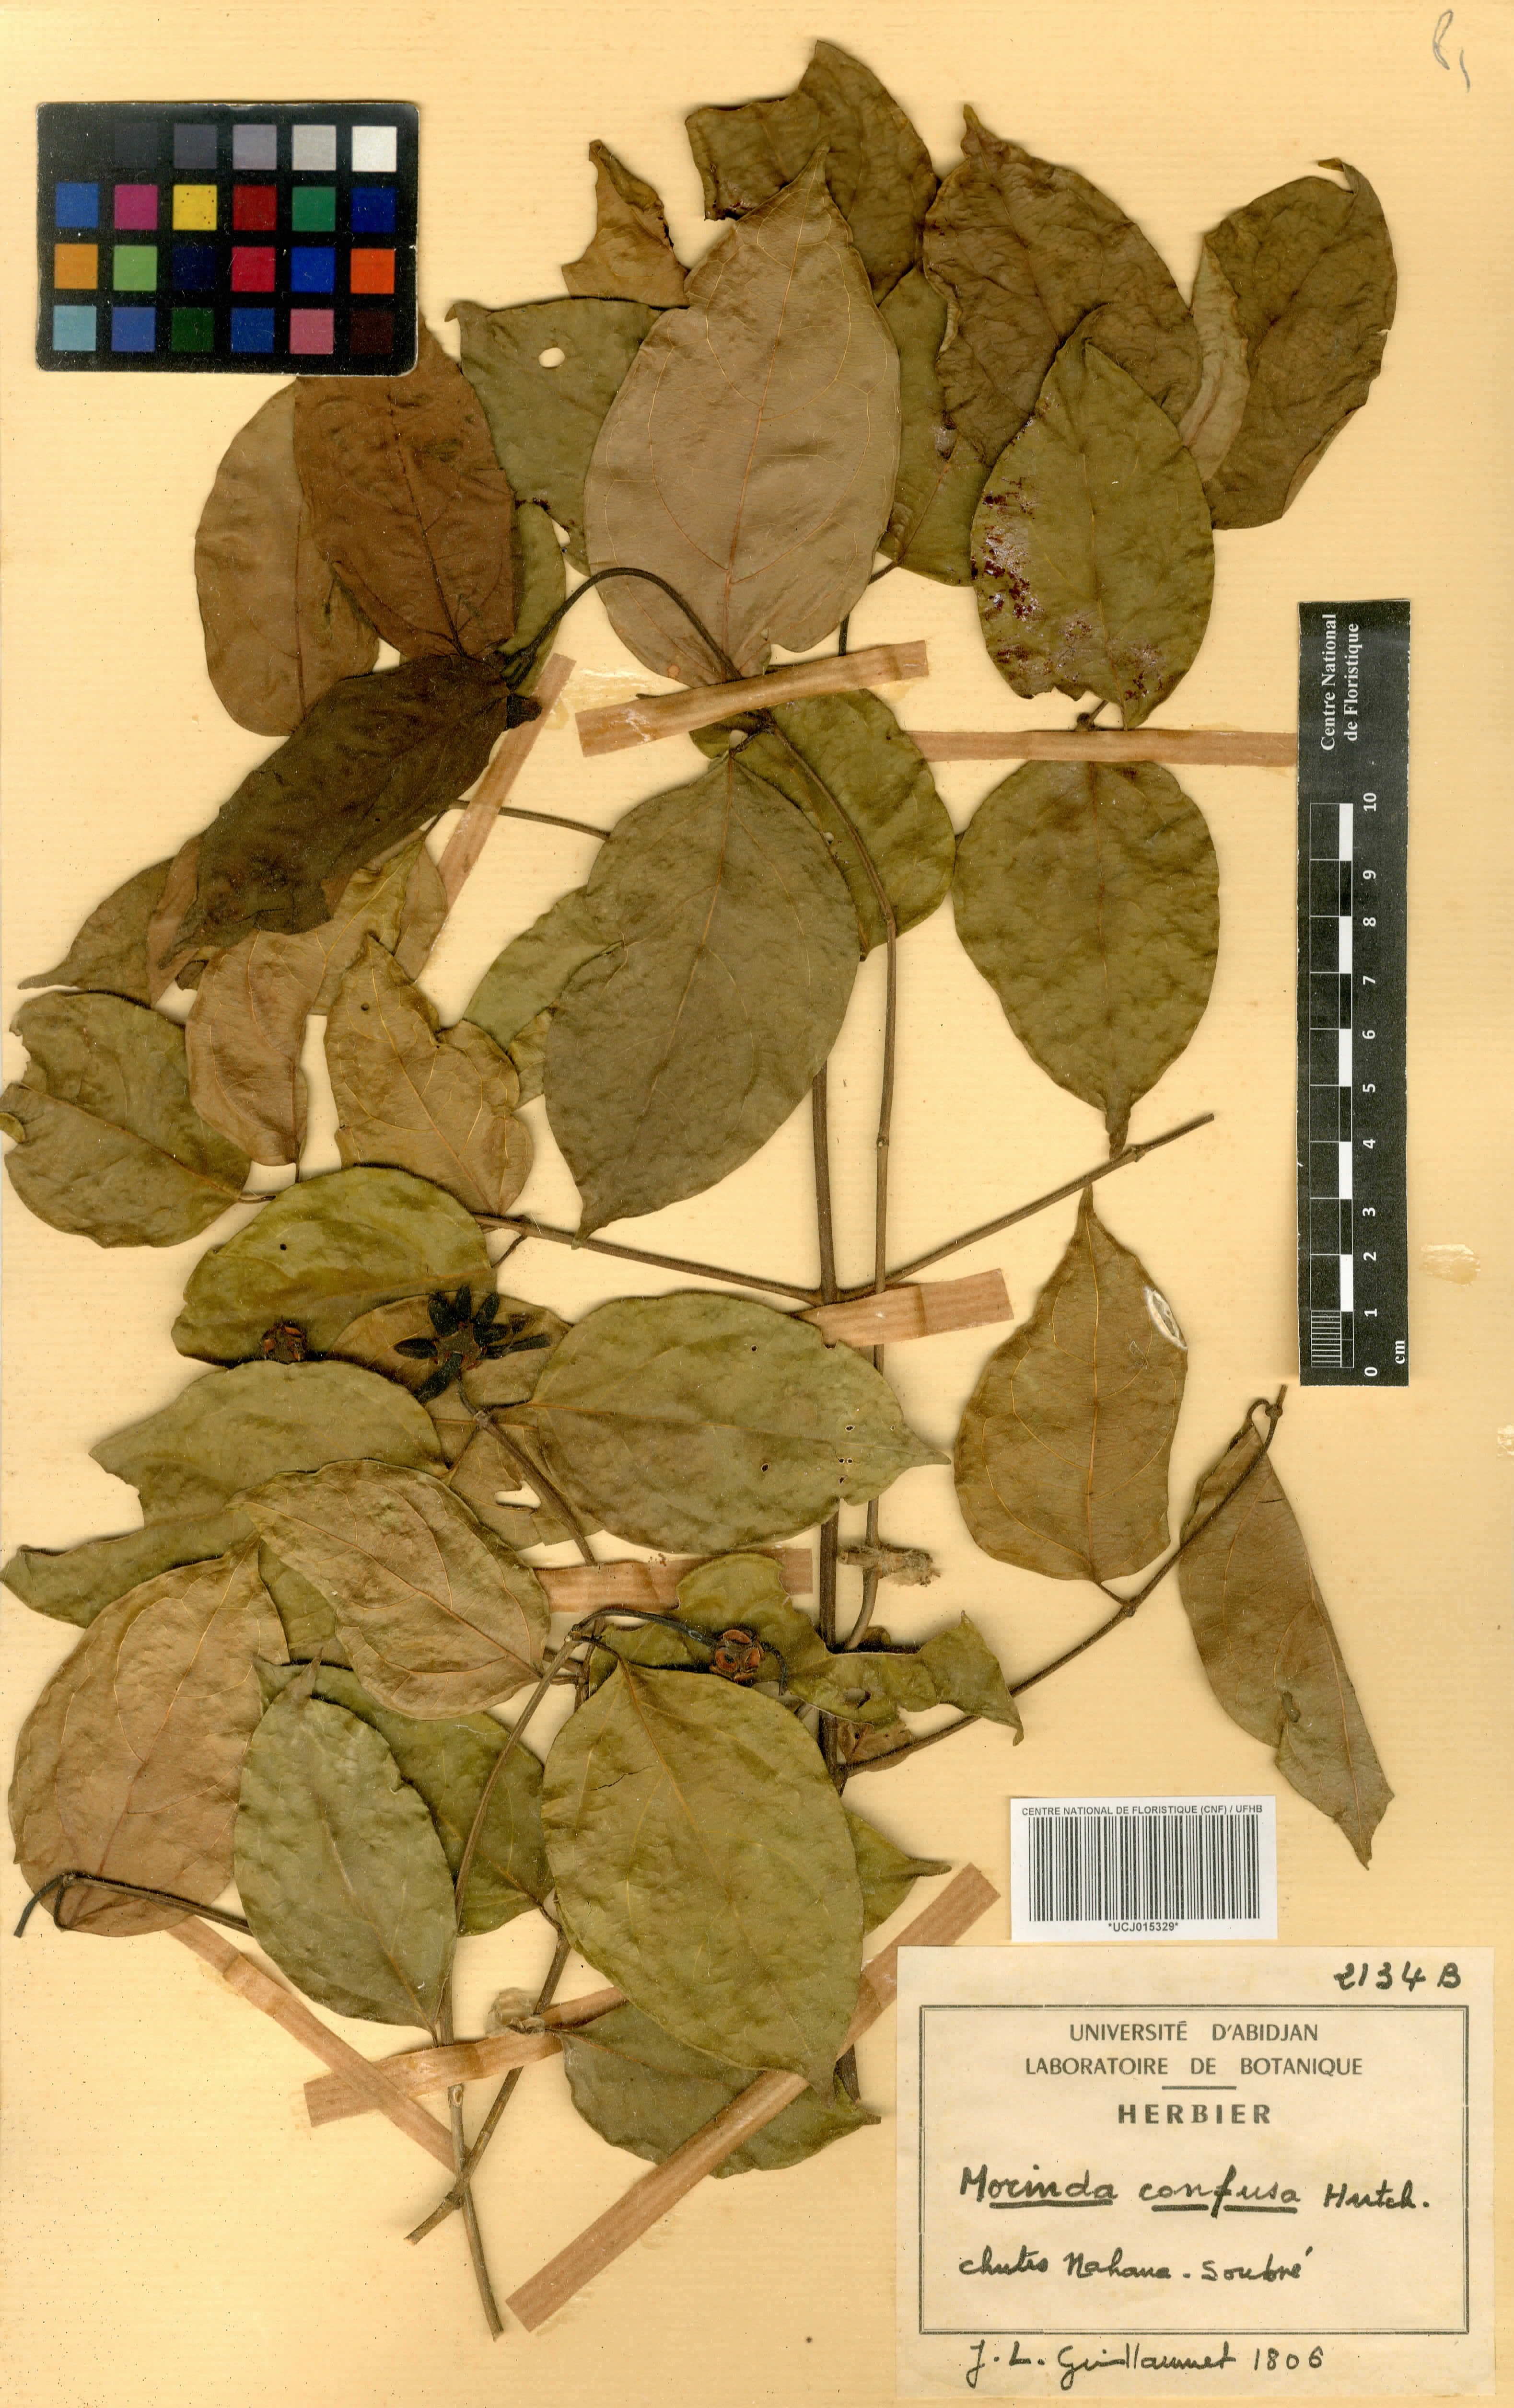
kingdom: Plantae
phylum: Tracheophyta
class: Magnoliopsida
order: Gentianales
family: Rubiaceae
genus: Morinda
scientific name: Morinda morindoides
